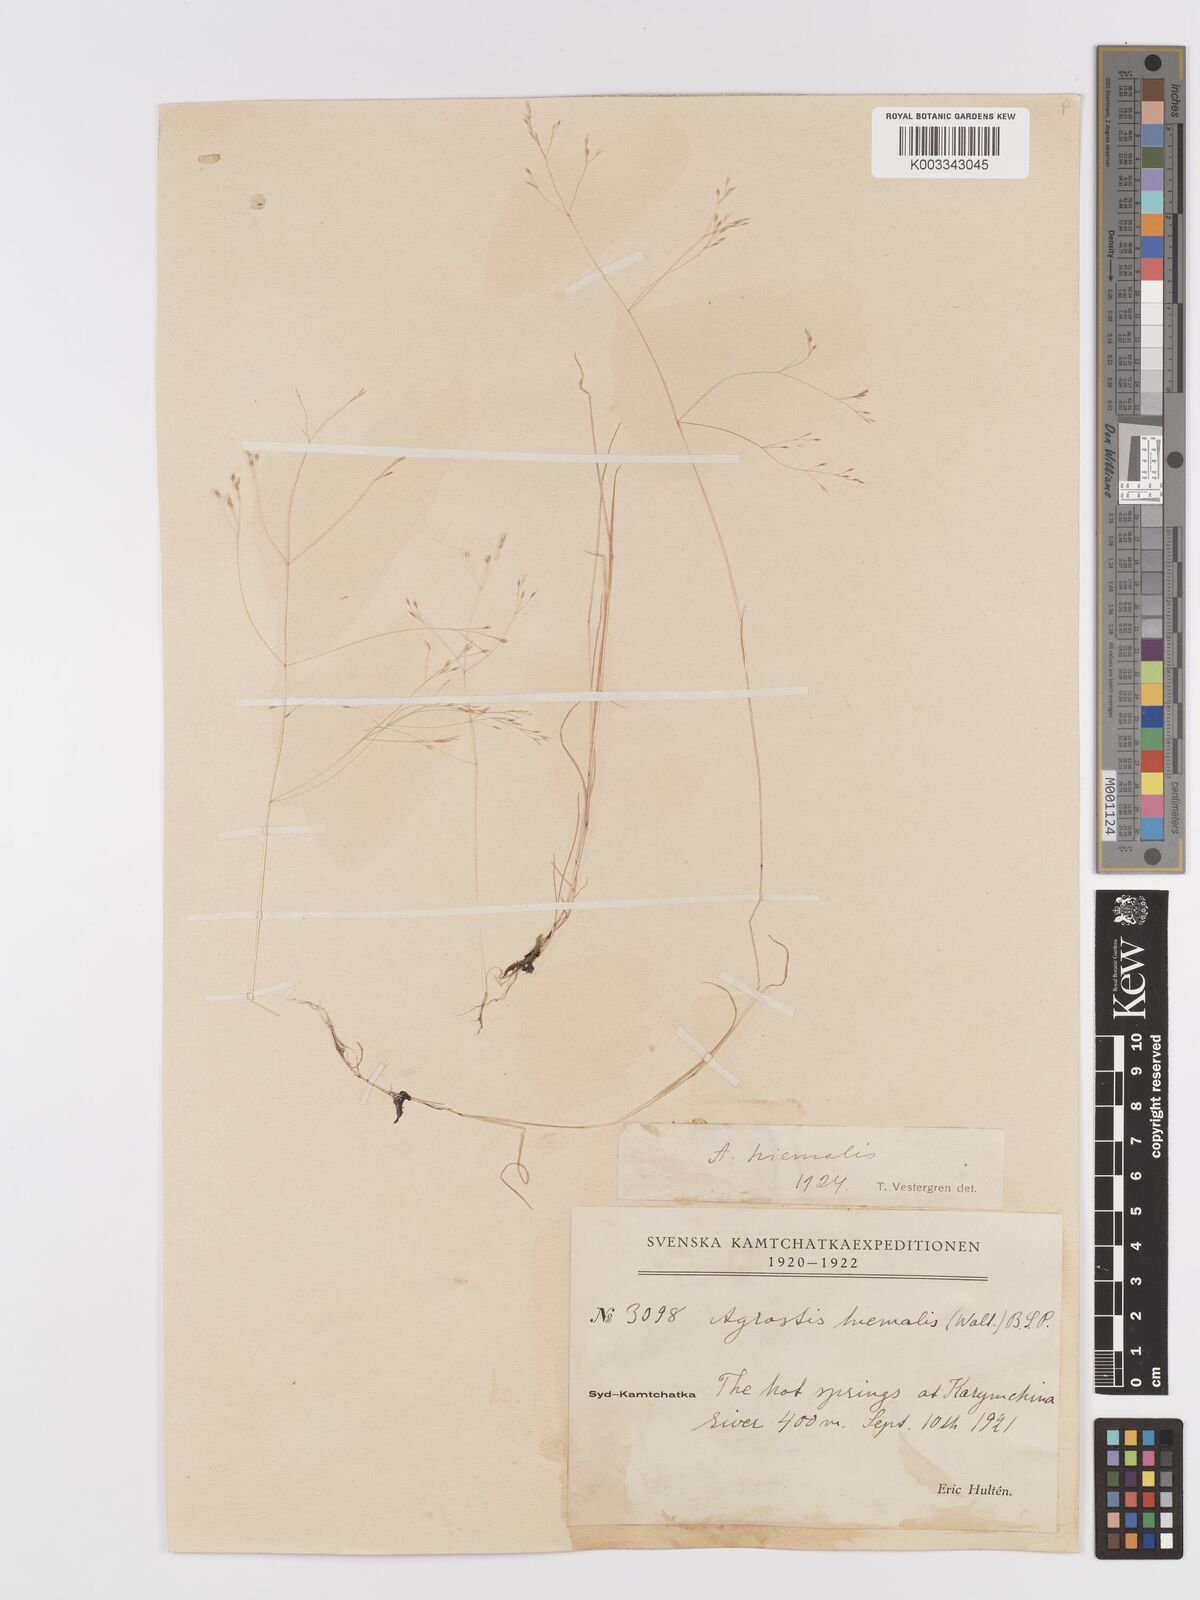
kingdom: Plantae
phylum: Tracheophyta
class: Liliopsida
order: Poales
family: Poaceae
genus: Agrostis
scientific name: Agrostis scabra
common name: Rough bent
